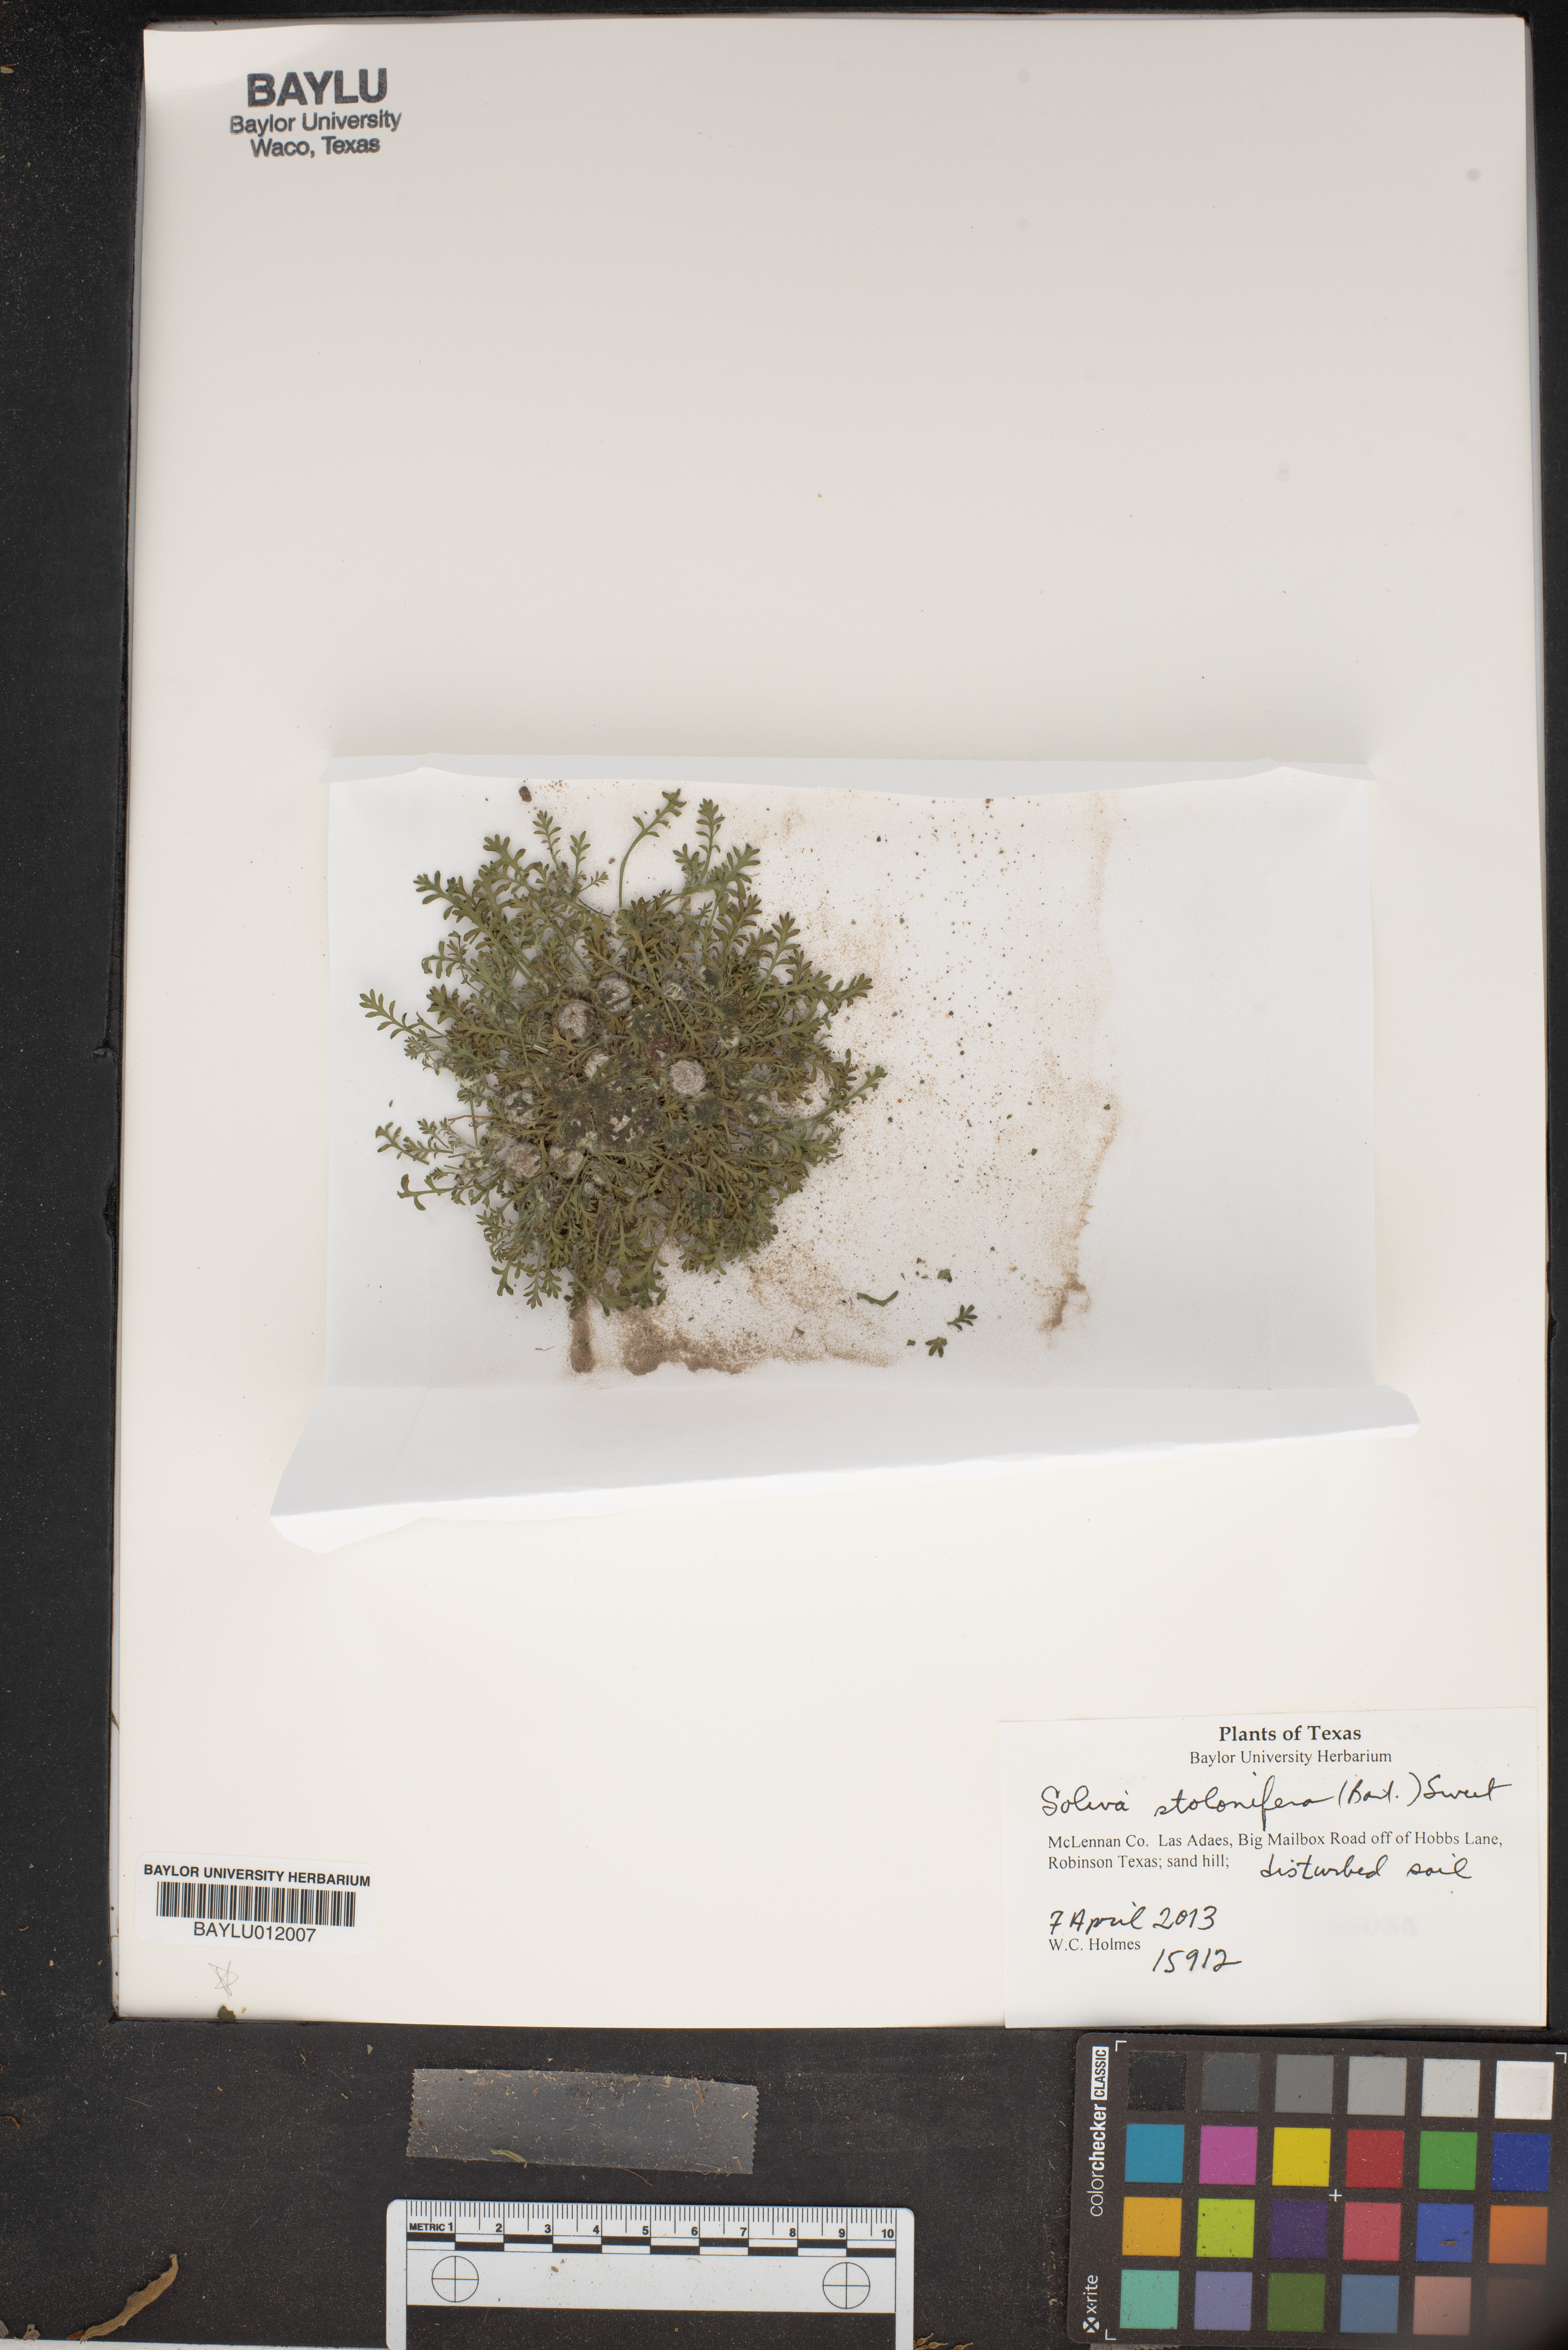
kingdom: Plantae
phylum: Tracheophyta
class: Magnoliopsida
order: Asterales
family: Asteraceae
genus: Soliva
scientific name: Soliva stolonifera
